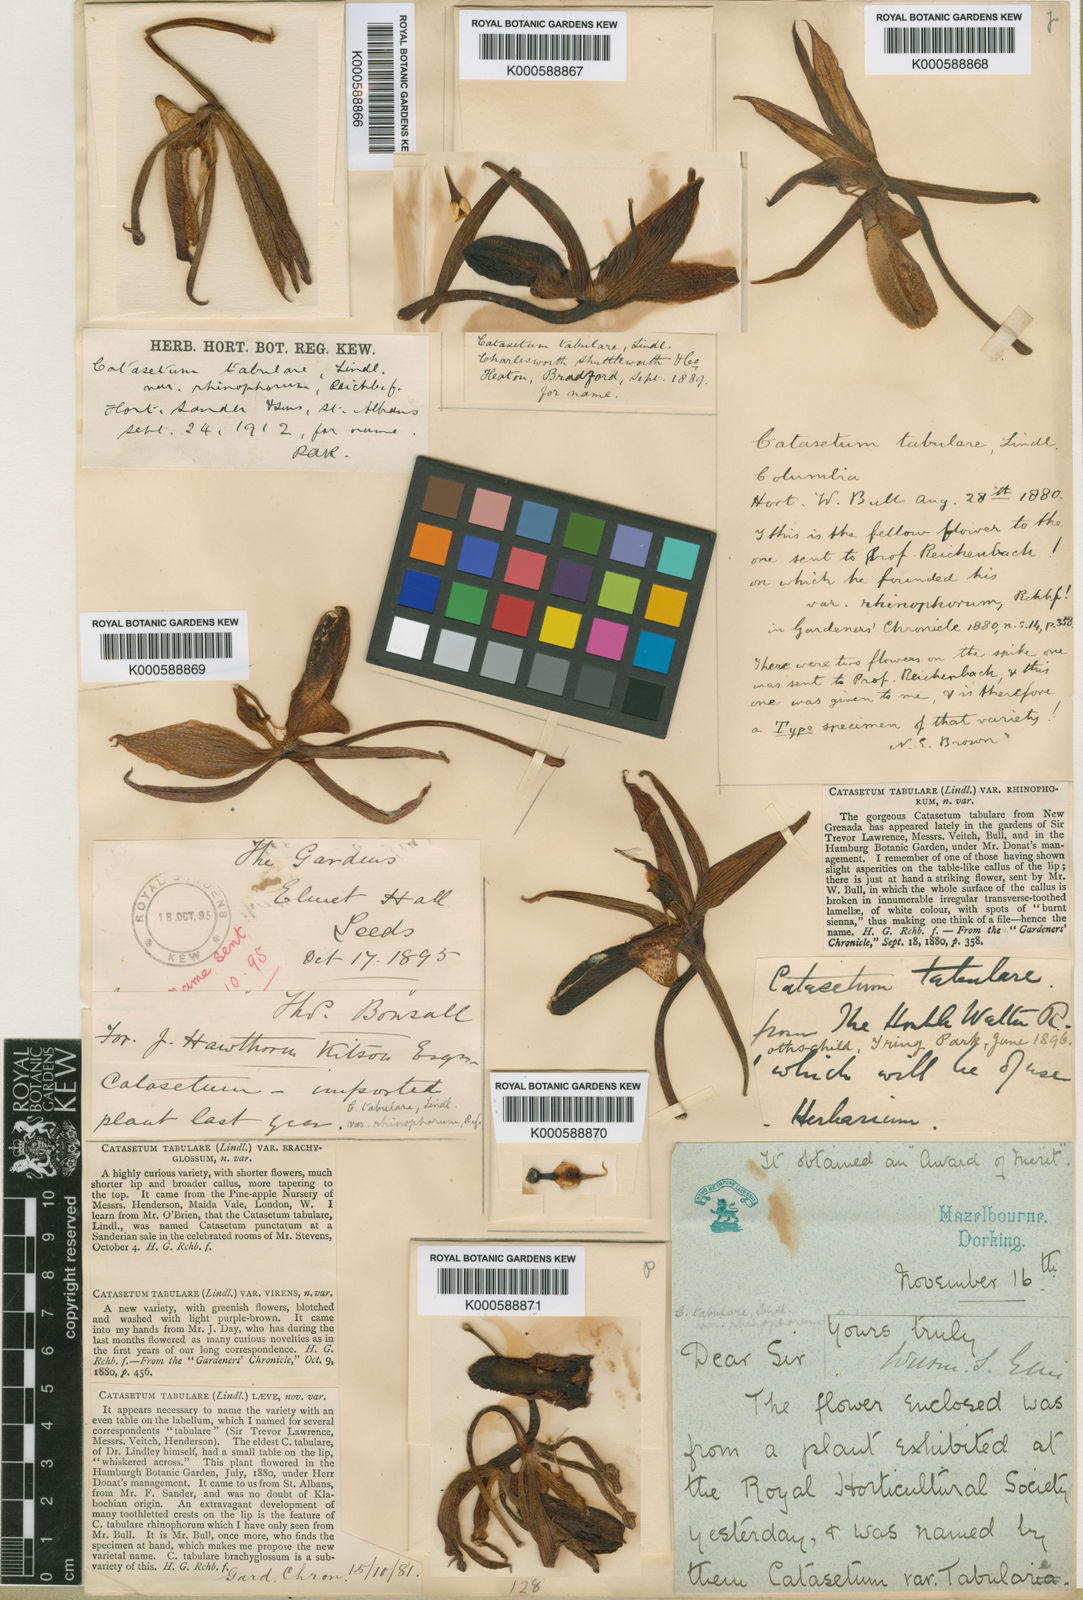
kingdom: Plantae
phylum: Tracheophyta
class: Liliopsida
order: Asparagales
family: Orchidaceae
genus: Catasetum
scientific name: Catasetum tabulare
